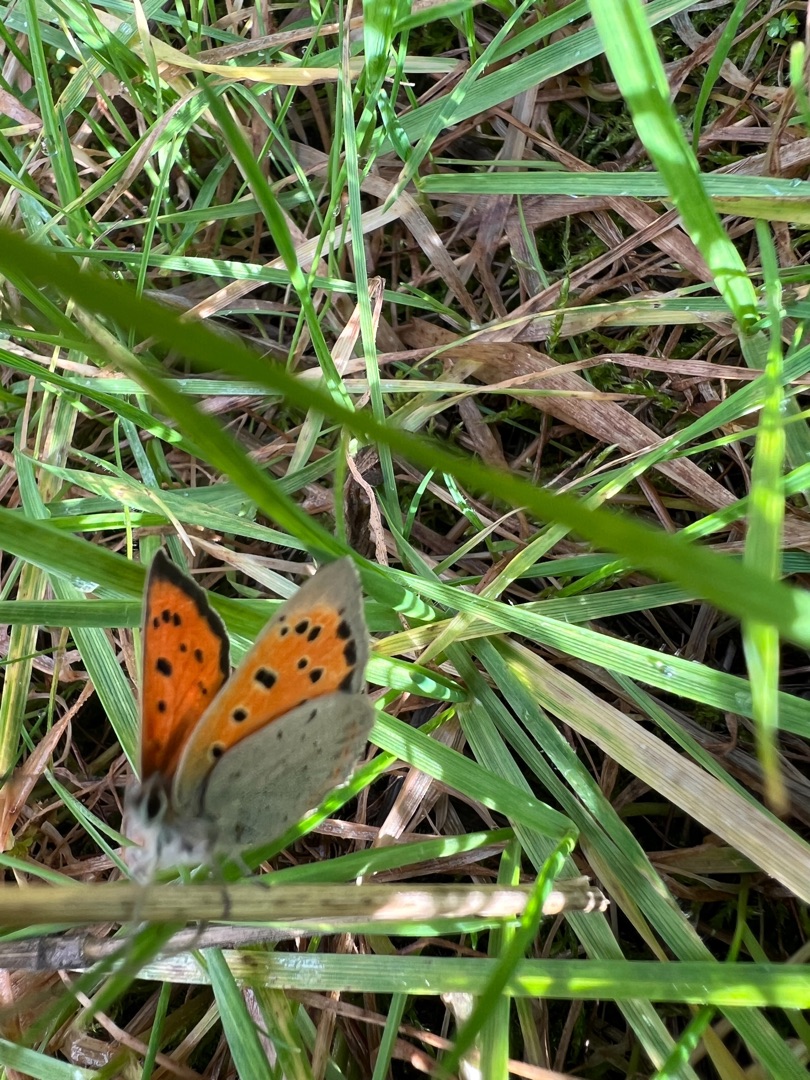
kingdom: Animalia
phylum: Arthropoda
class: Insecta
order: Lepidoptera
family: Lycaenidae
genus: Lycaena
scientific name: Lycaena phlaeas
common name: Lille ildfugl
